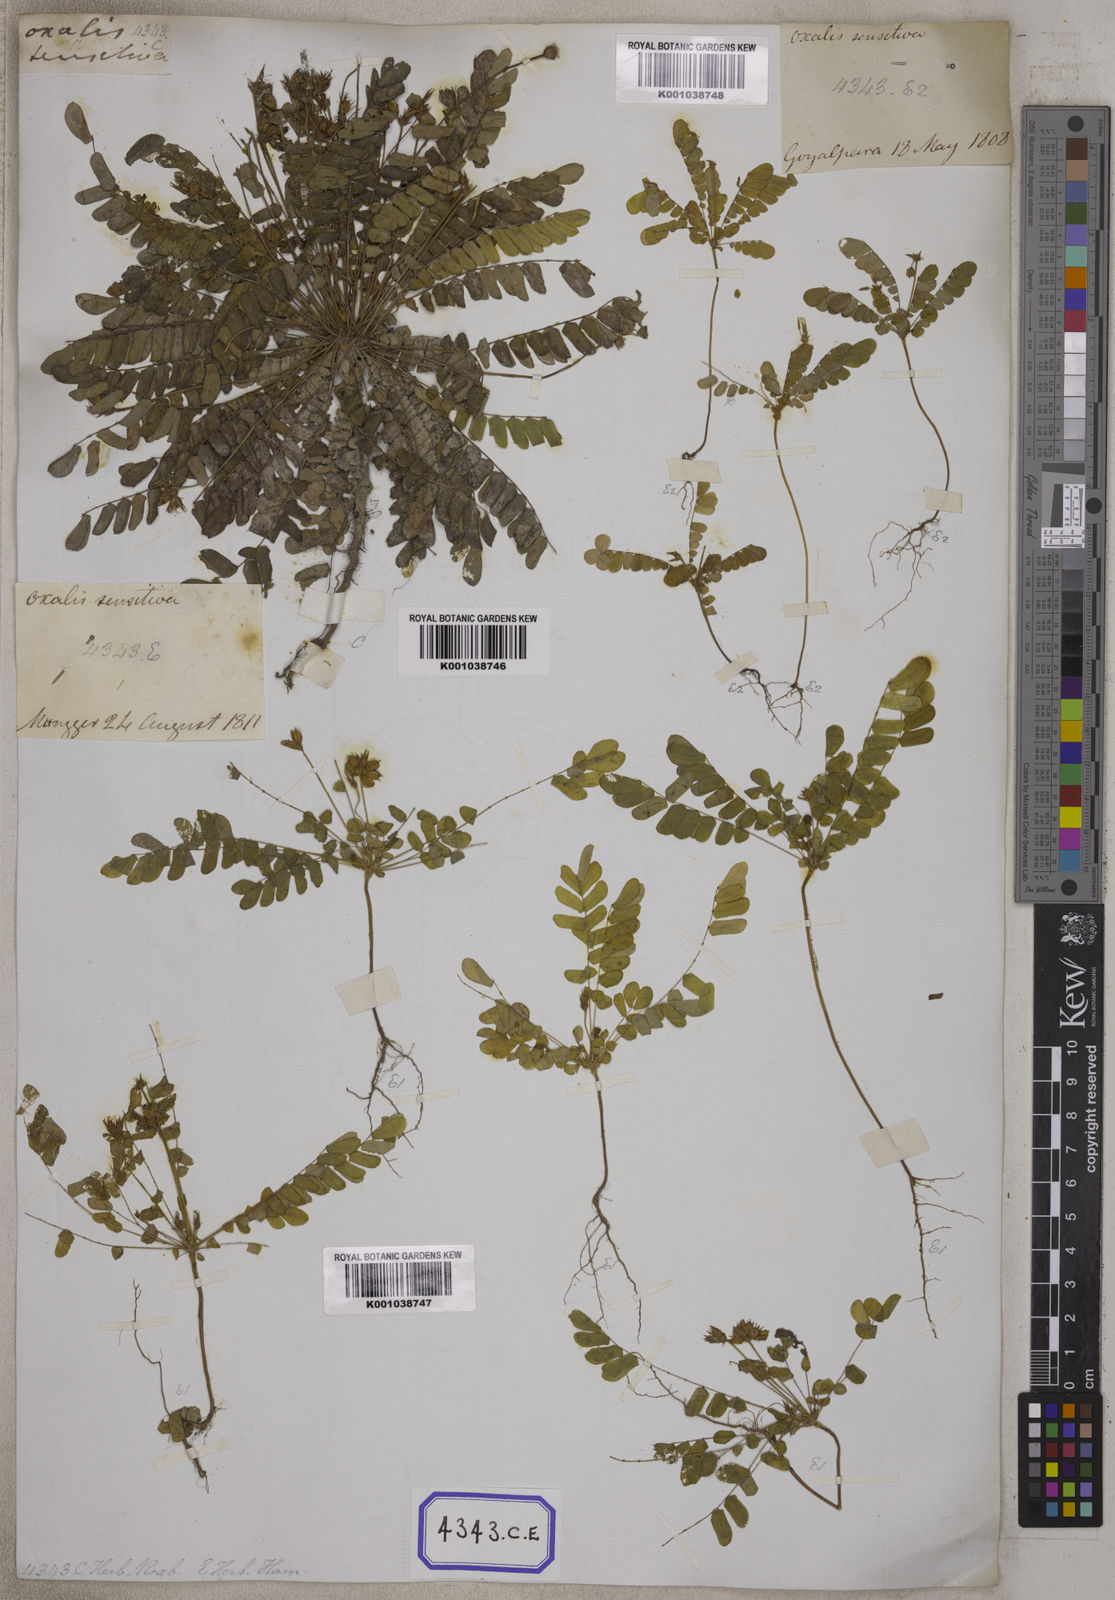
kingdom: Plantae
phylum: Tracheophyta
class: Magnoliopsida
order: Oxalidales
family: Oxalidaceae
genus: Biophytum
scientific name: Biophytum sensitivum
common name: Lifeplant
